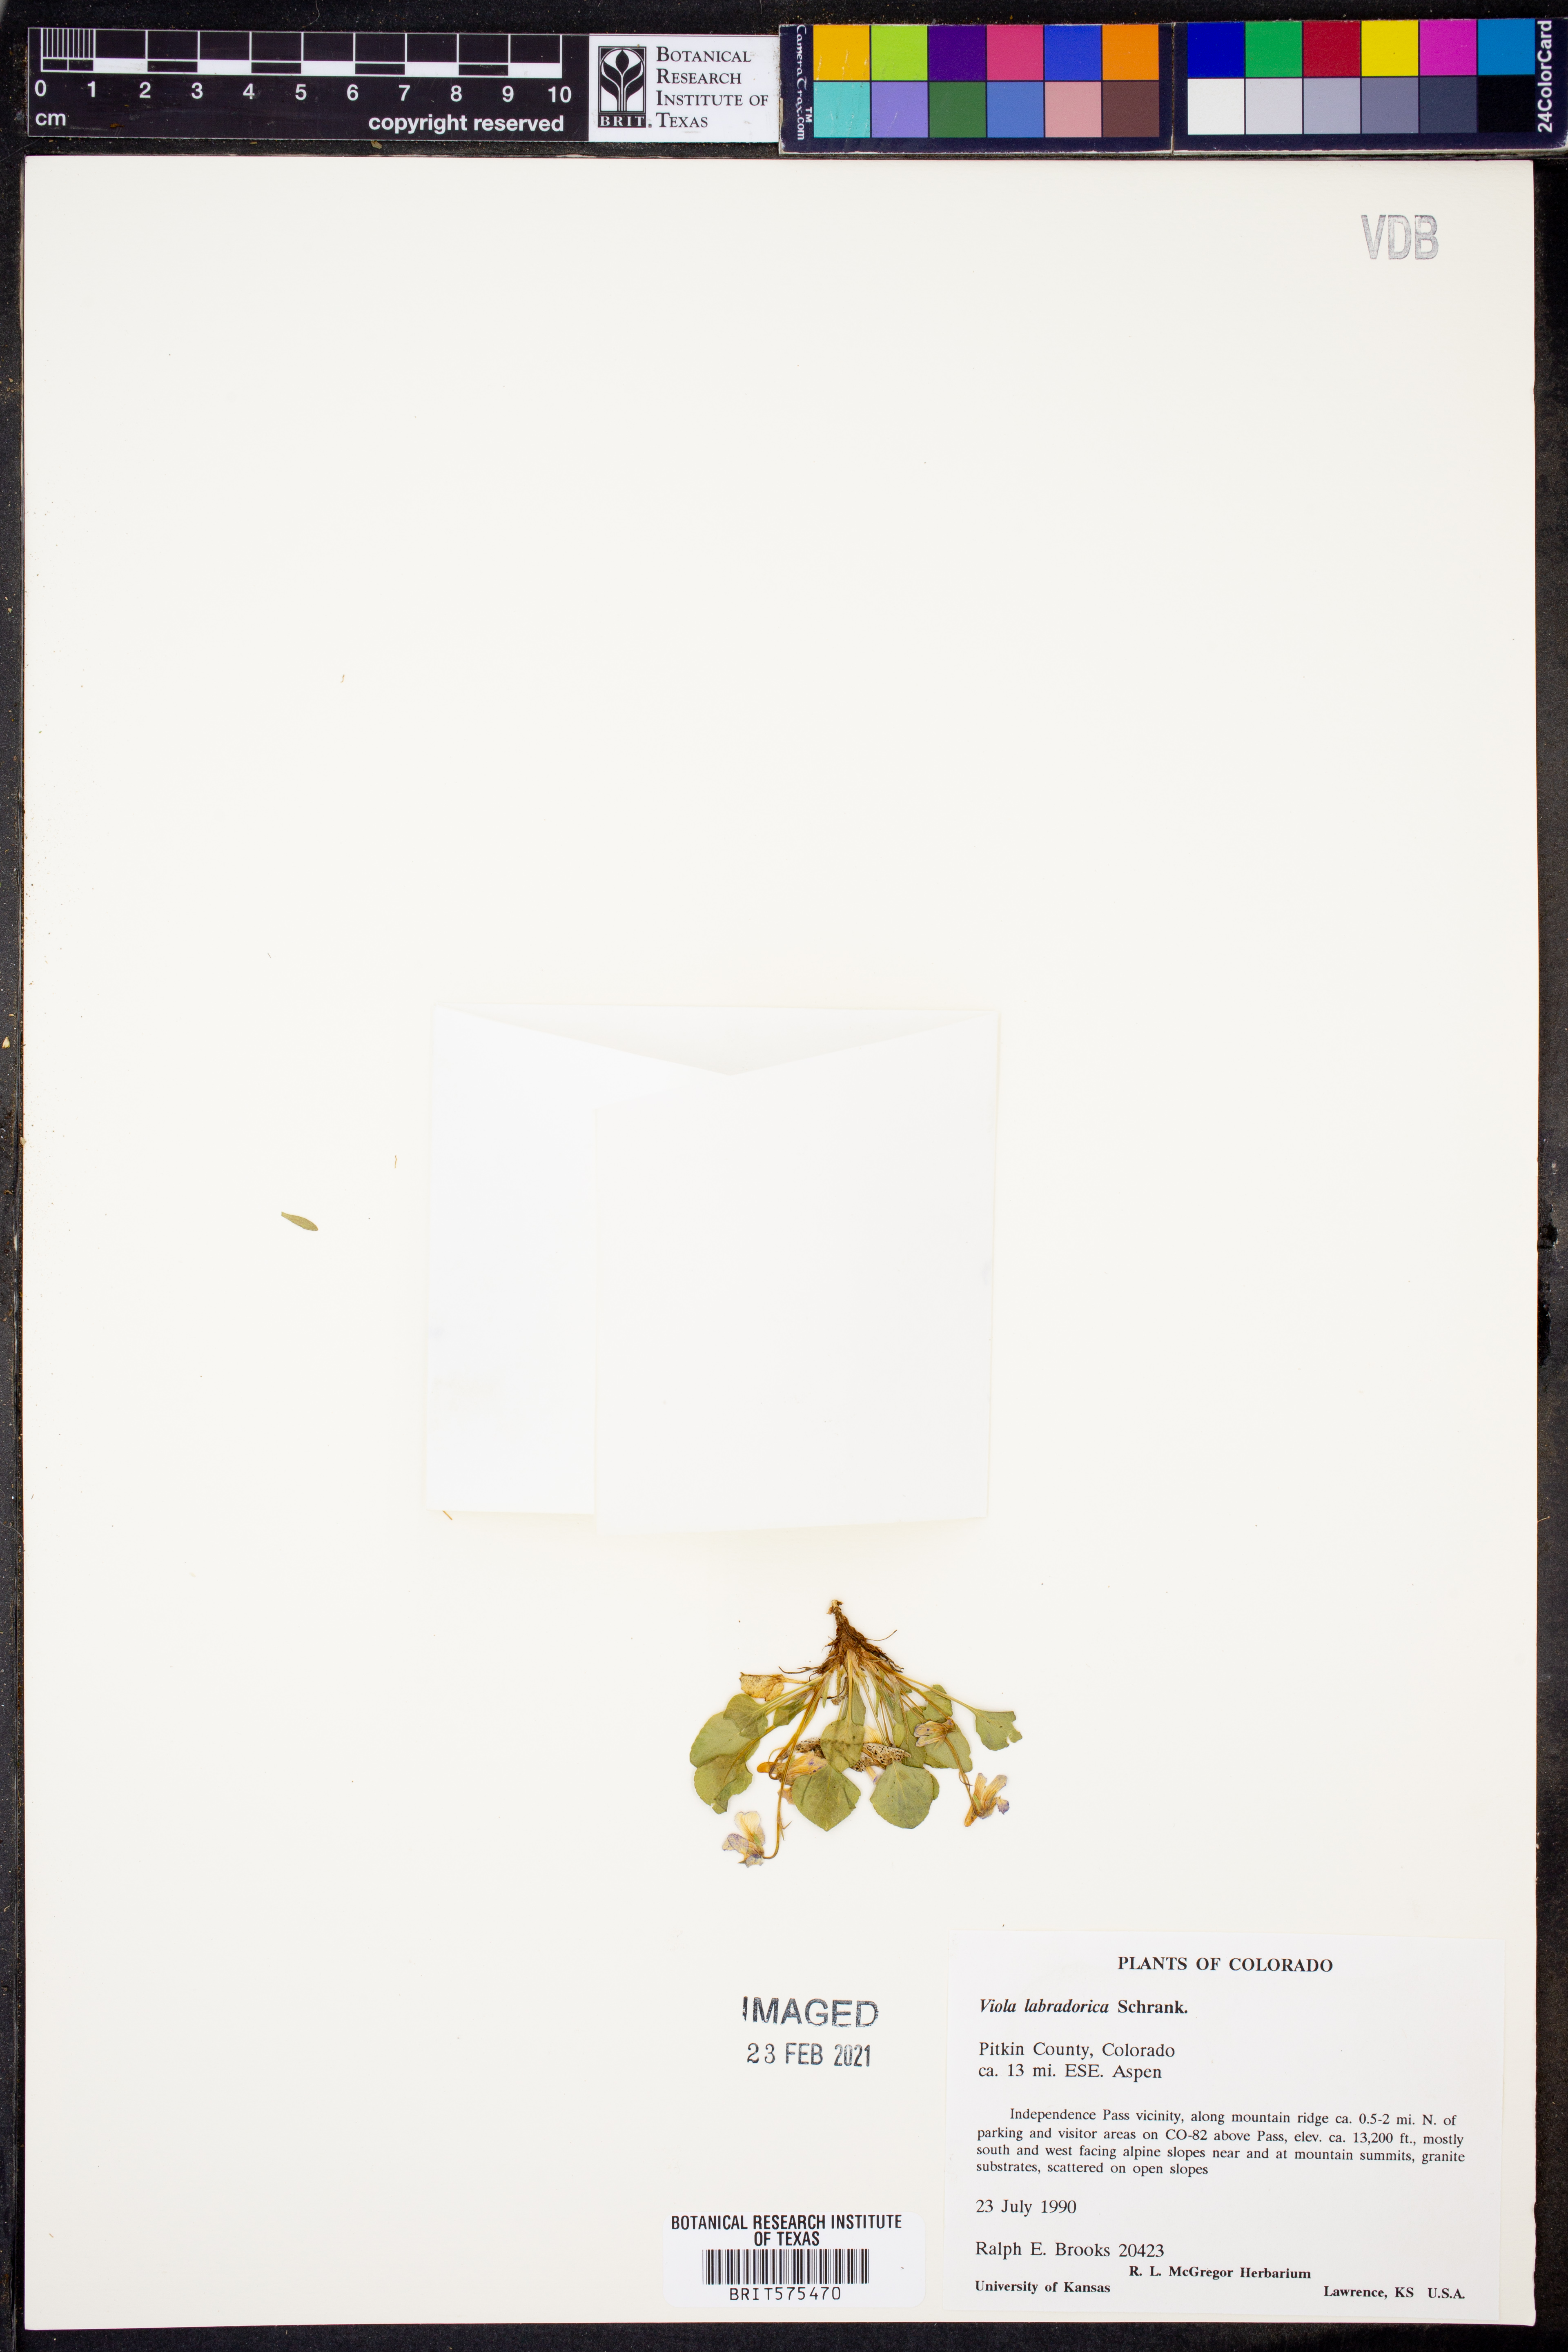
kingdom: Plantae
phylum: Tracheophyta
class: Magnoliopsida
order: Malpighiales
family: Violaceae
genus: Viola
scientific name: Viola labradorica
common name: Labrador violet
